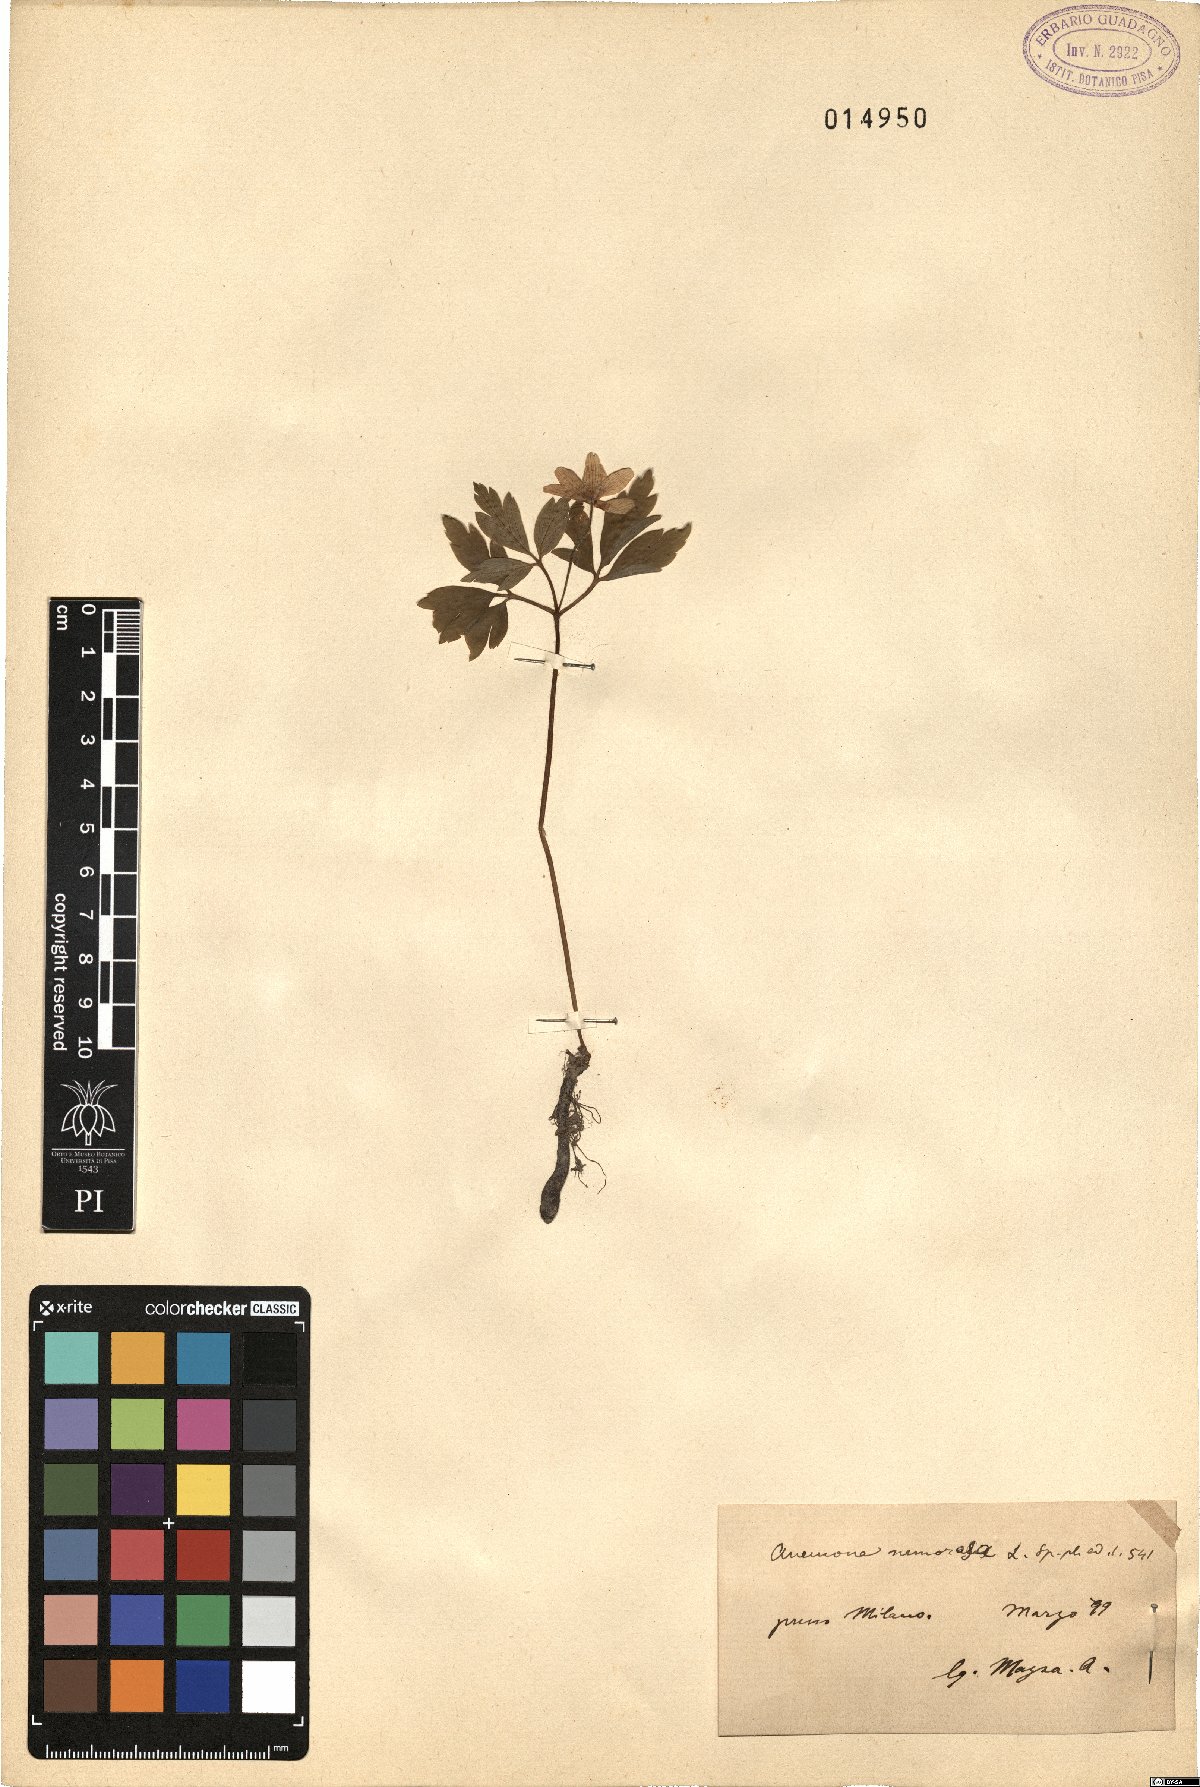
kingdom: Plantae
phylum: Tracheophyta
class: Magnoliopsida
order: Ranunculales
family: Ranunculaceae
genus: Anemone
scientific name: Anemone nemorosa
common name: Wood anemone
